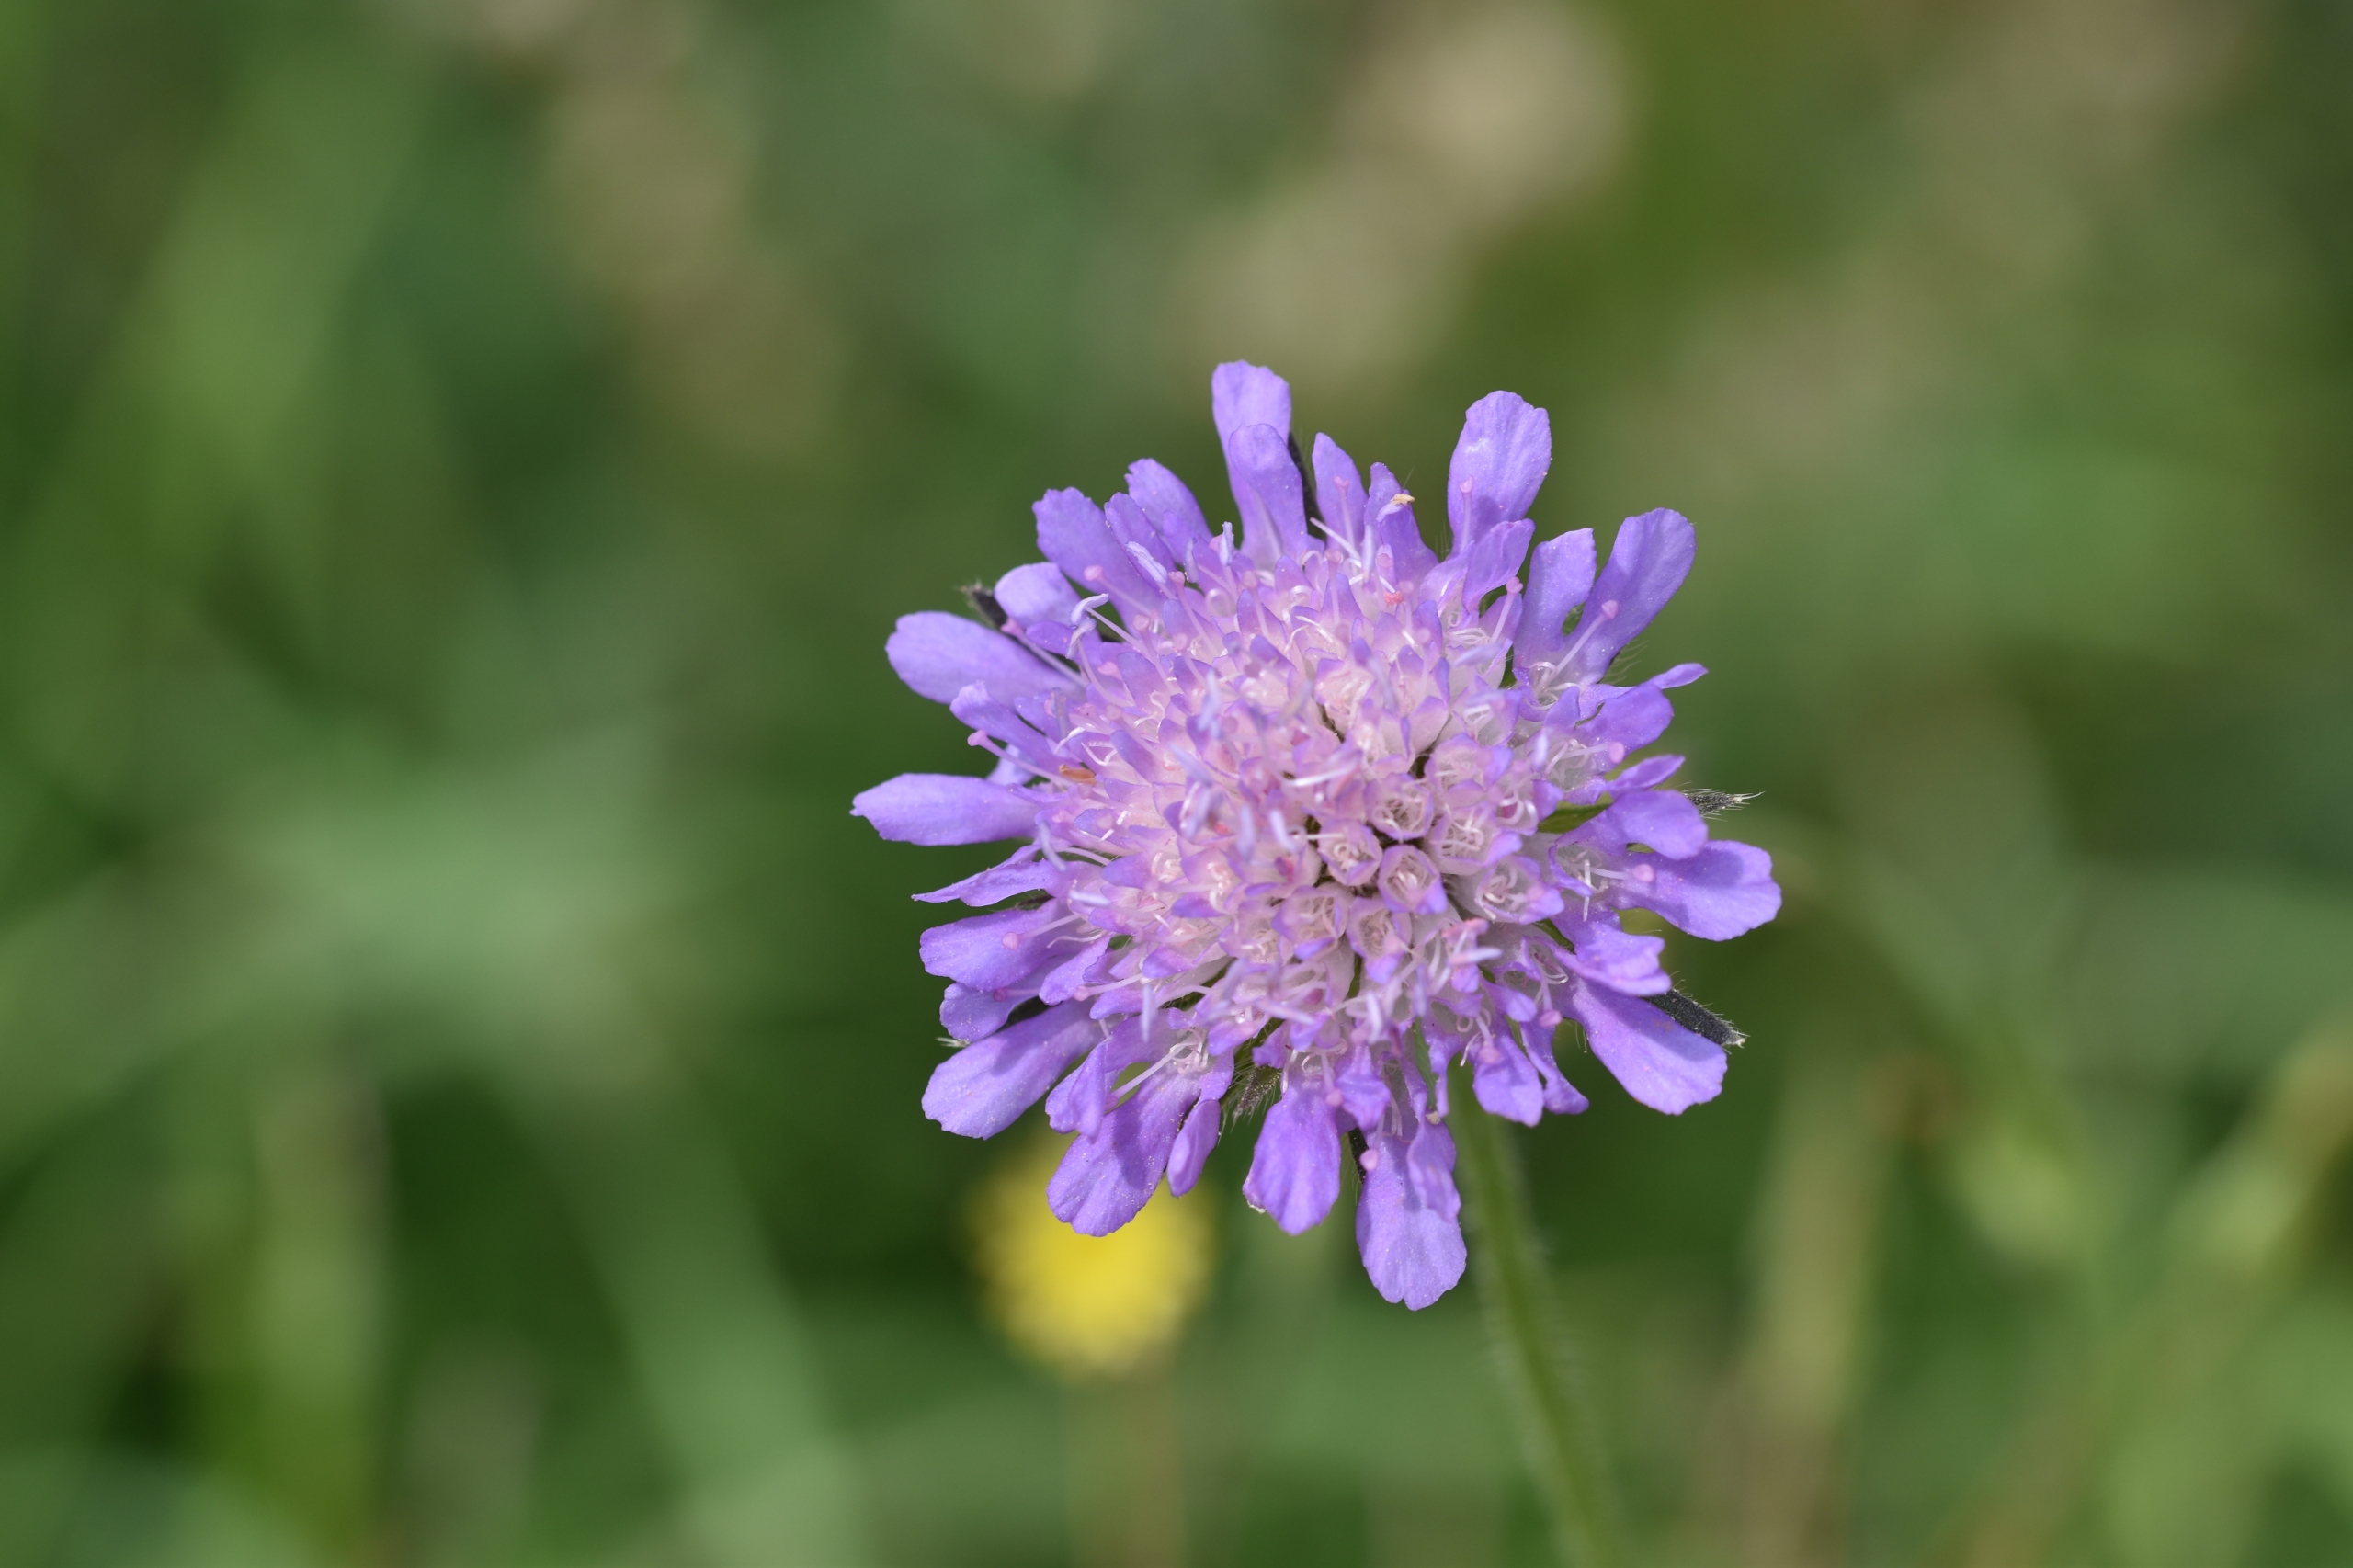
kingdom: Plantae
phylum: Tracheophyta
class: Magnoliopsida
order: Dipsacales
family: Caprifoliaceae
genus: Knautia
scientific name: Knautia arvensis
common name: Blåhat
